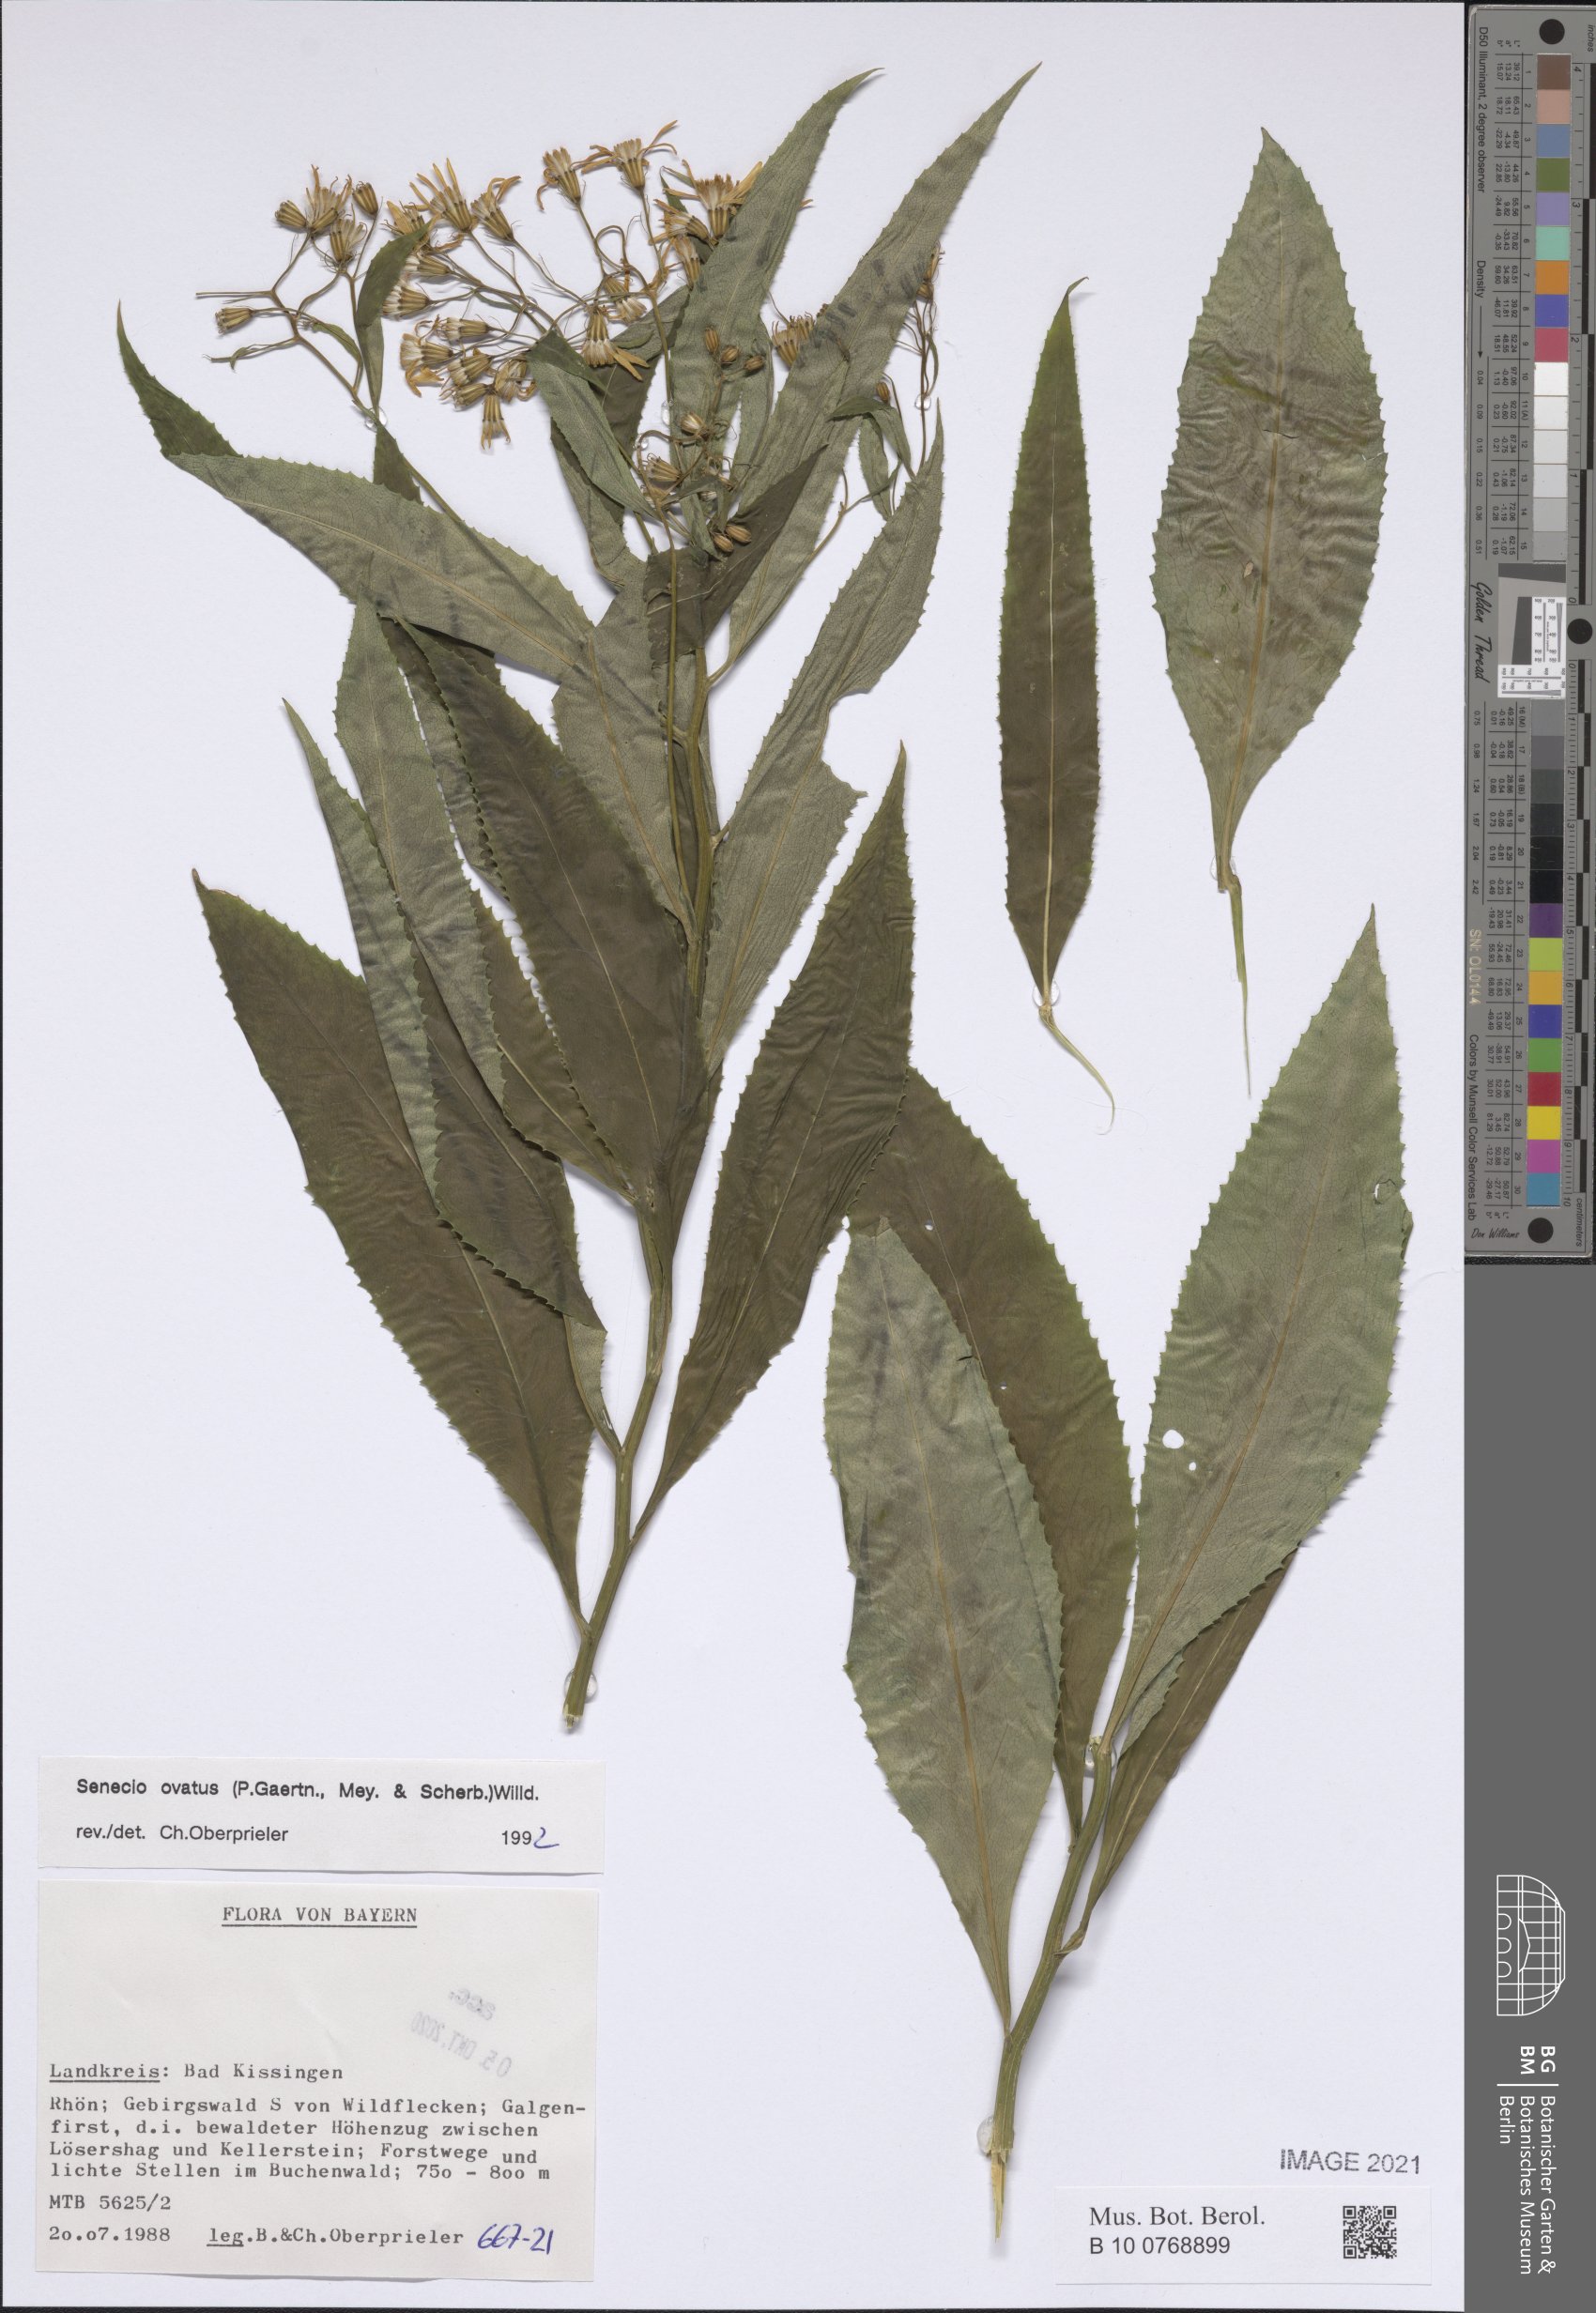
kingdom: Plantae
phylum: Tracheophyta
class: Magnoliopsida
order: Asterales
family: Asteraceae
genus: Senecio
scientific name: Senecio ovatus
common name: Wood ragwort
